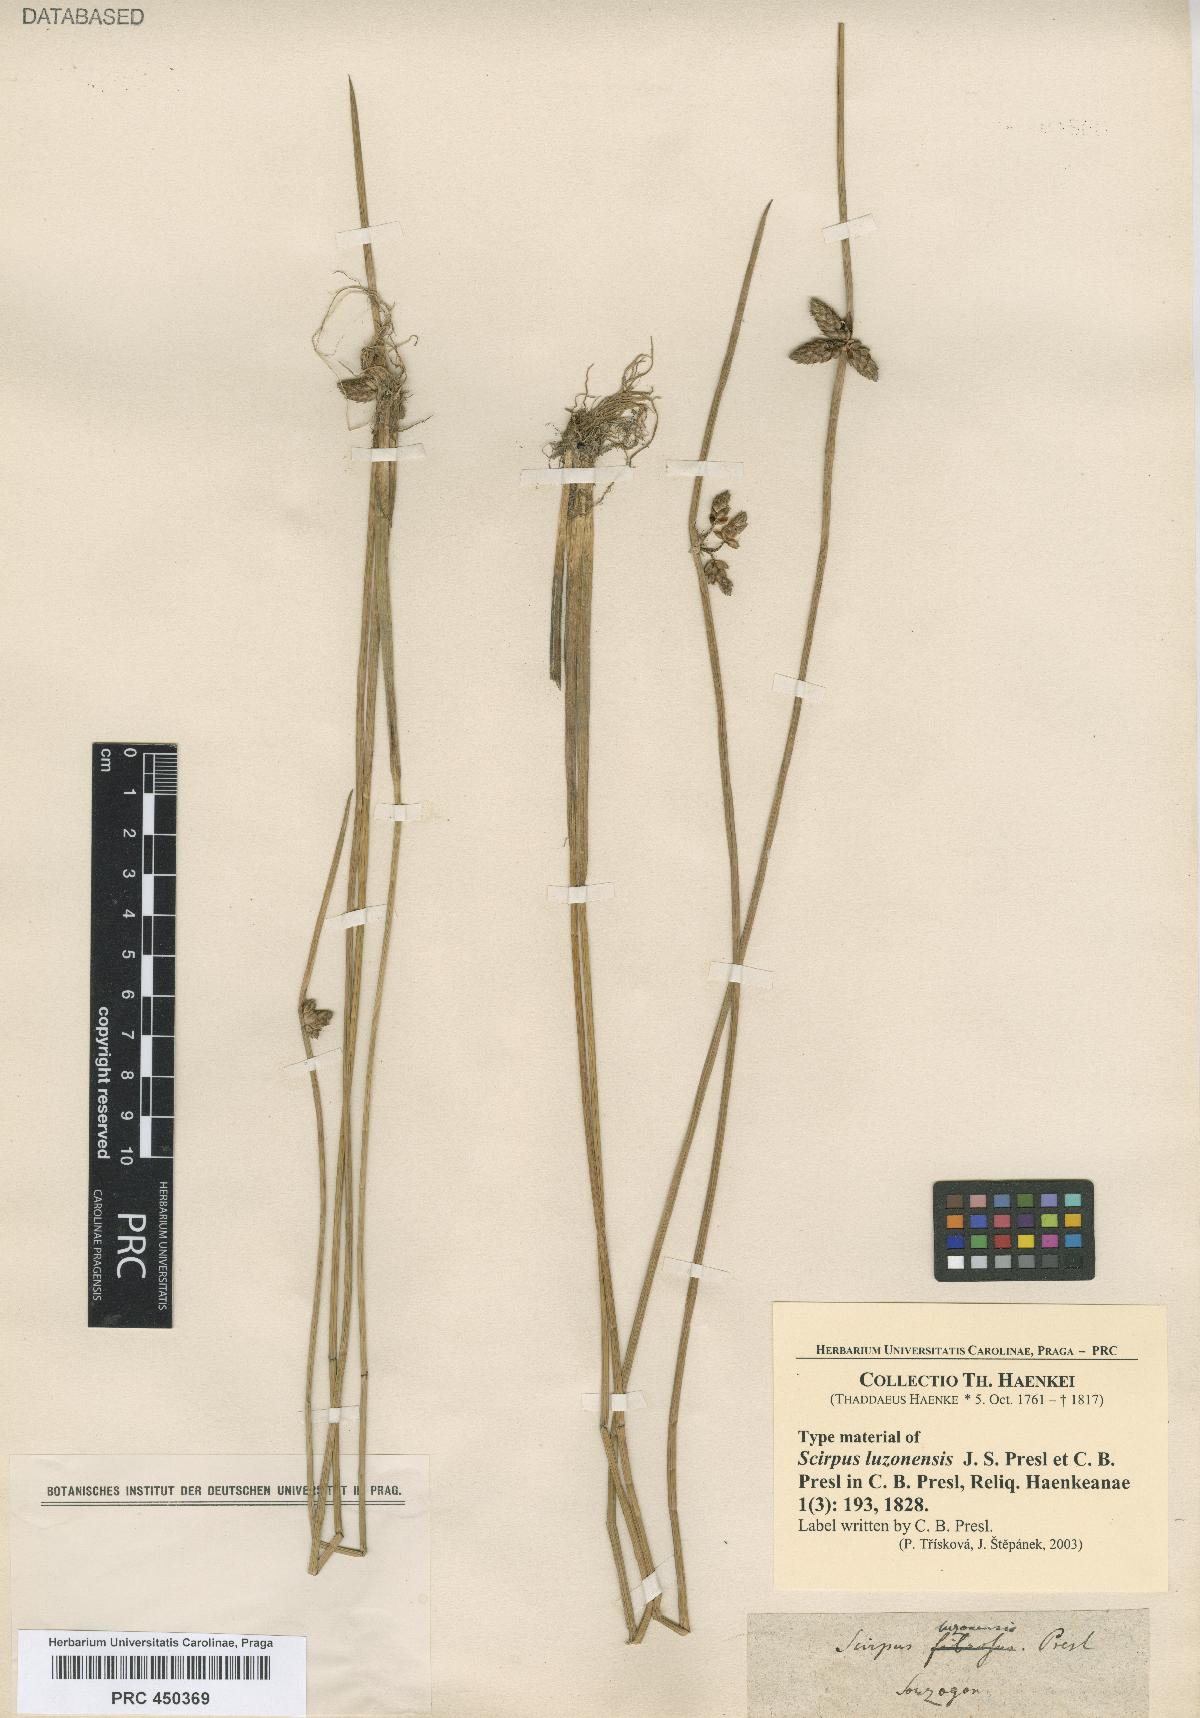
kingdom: Plantae
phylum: Tracheophyta
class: Liliopsida
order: Poales
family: Cyperaceae
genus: Schoenoplectiella
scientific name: Schoenoplectiella juncoides
